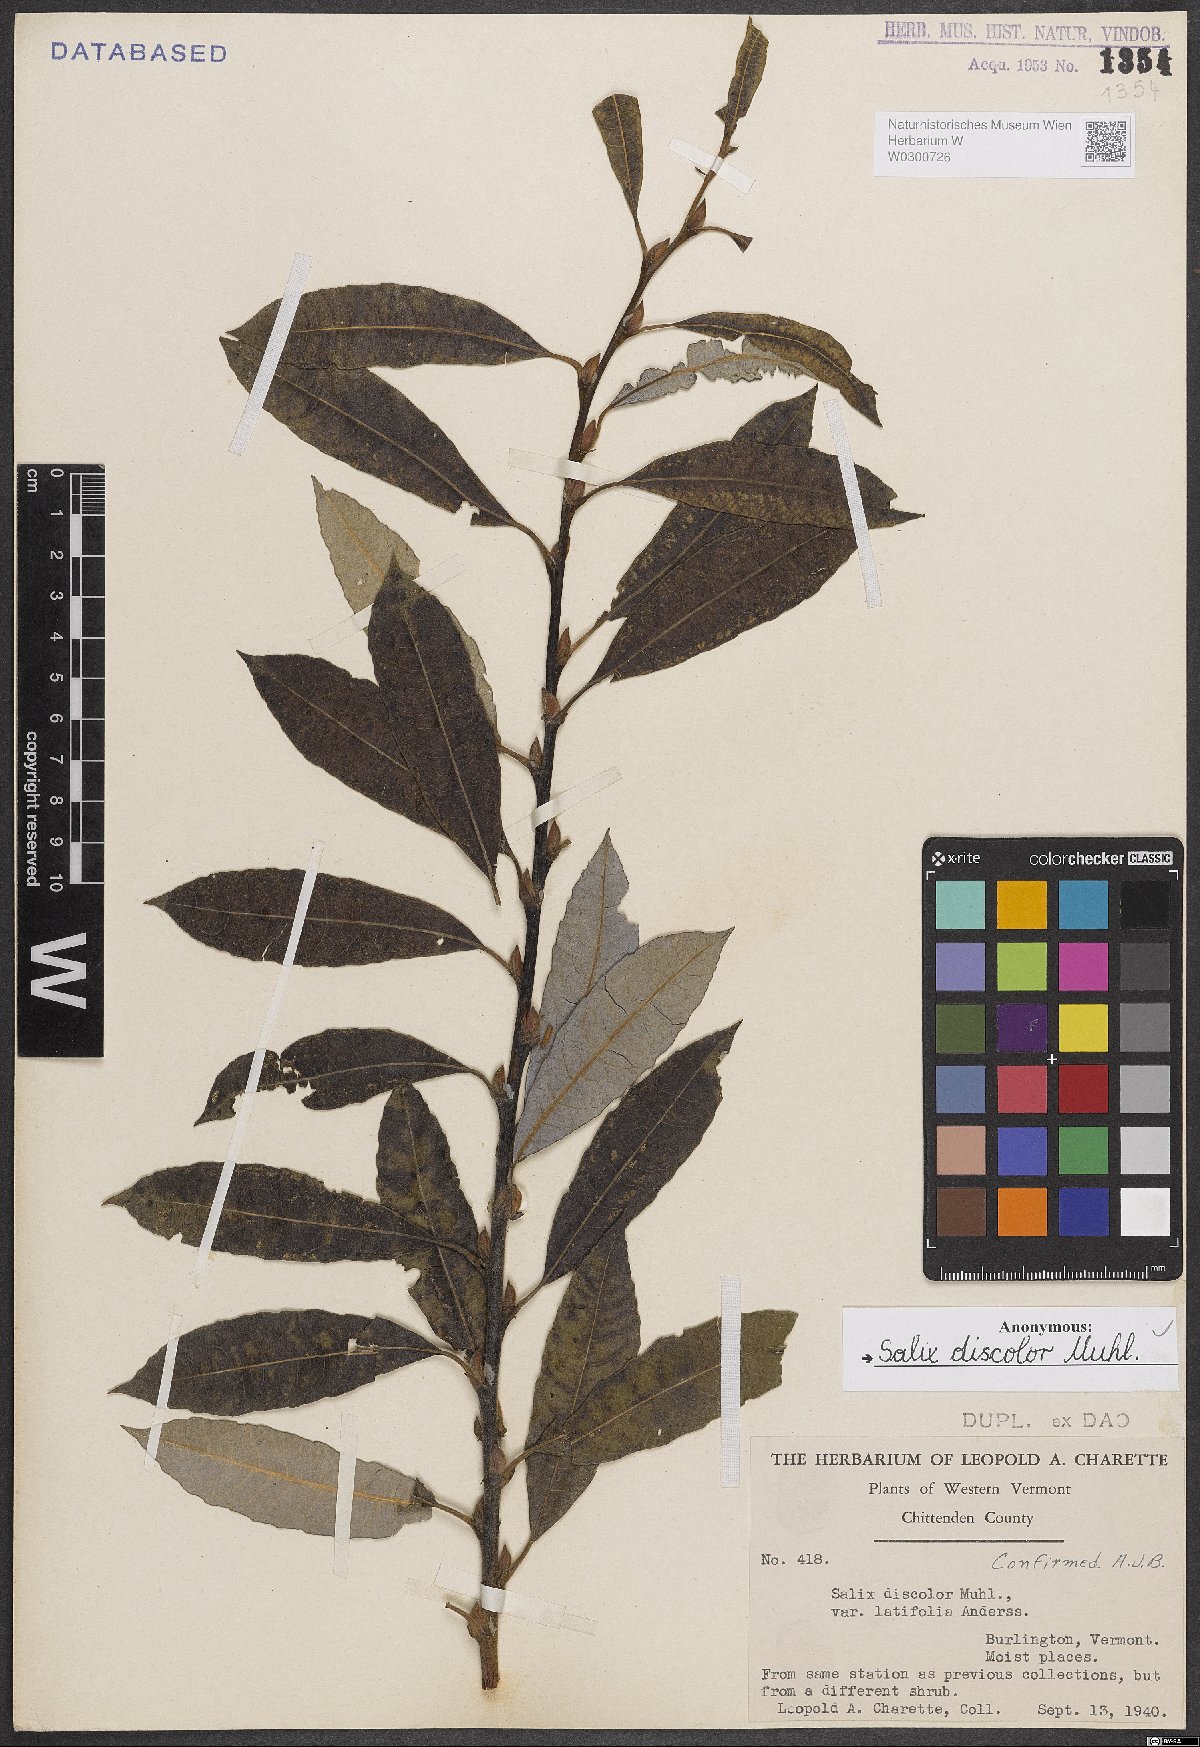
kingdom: Plantae
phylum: Tracheophyta
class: Magnoliopsida
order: Malpighiales
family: Salicaceae
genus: Salix
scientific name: Salix discolor
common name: Glaucous willow
